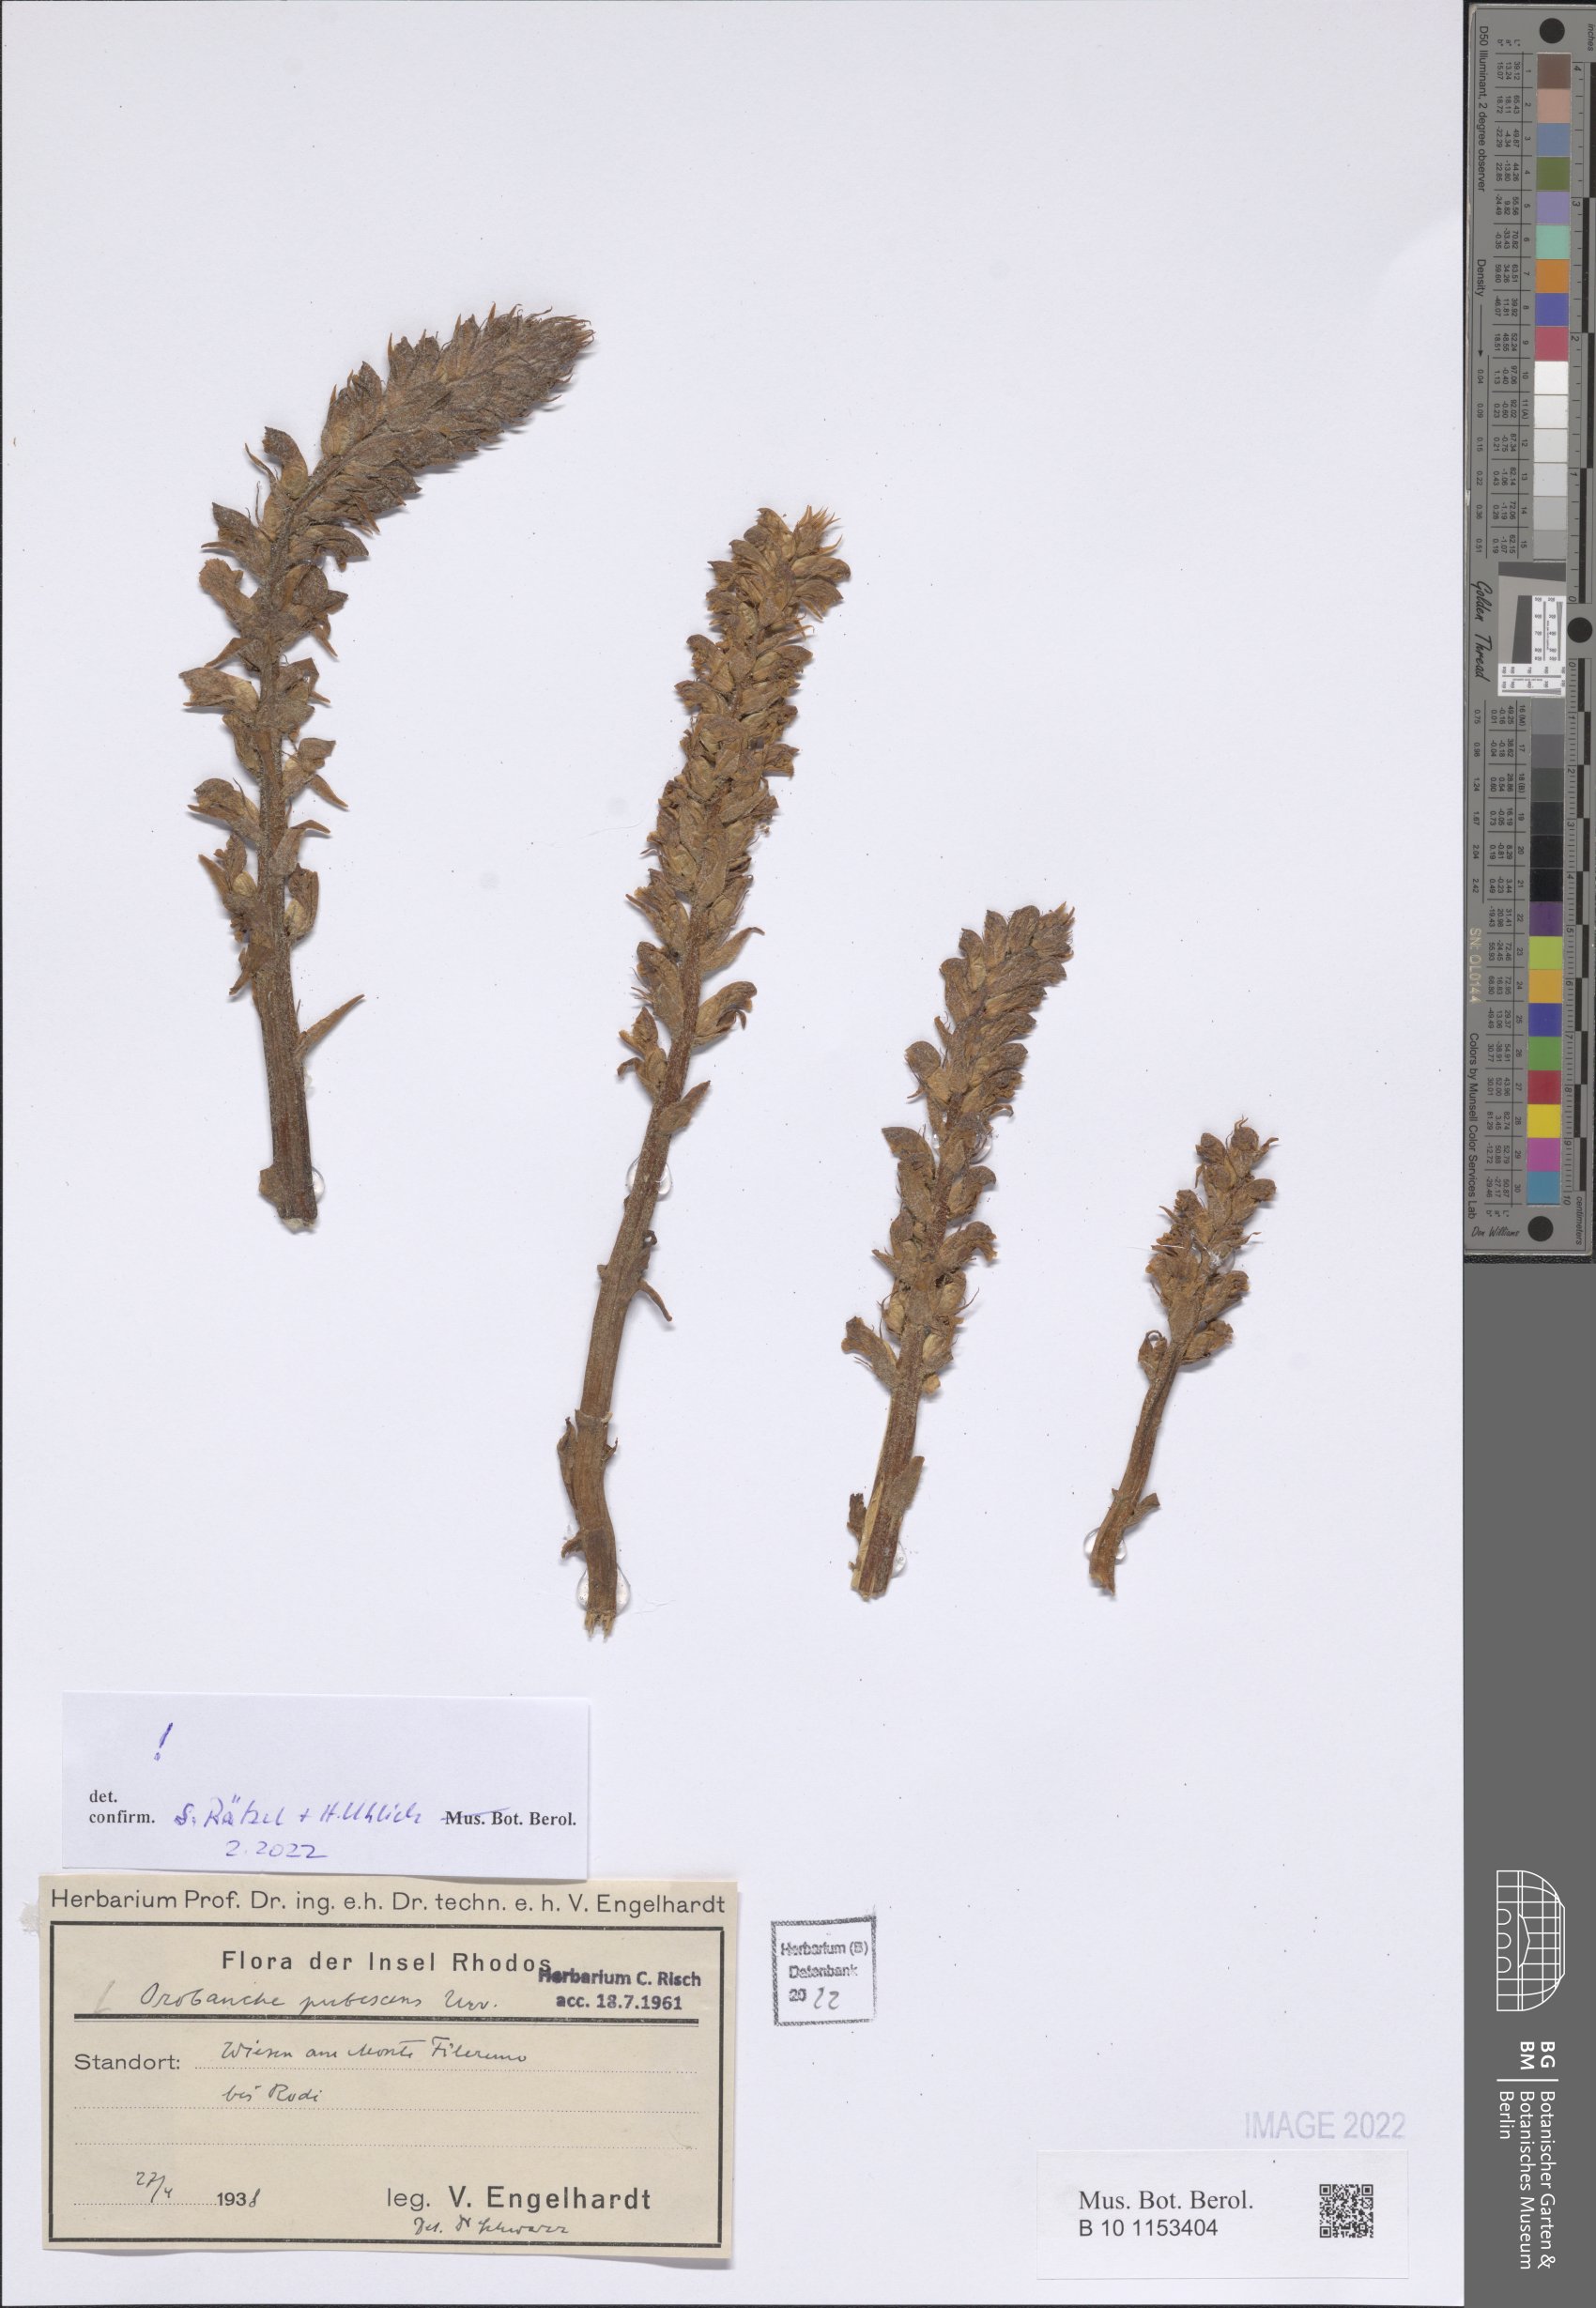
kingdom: Plantae
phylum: Tracheophyta
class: Magnoliopsida
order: Lamiales
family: Orobanchaceae
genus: Orobanche
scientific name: Orobanche pubescens
